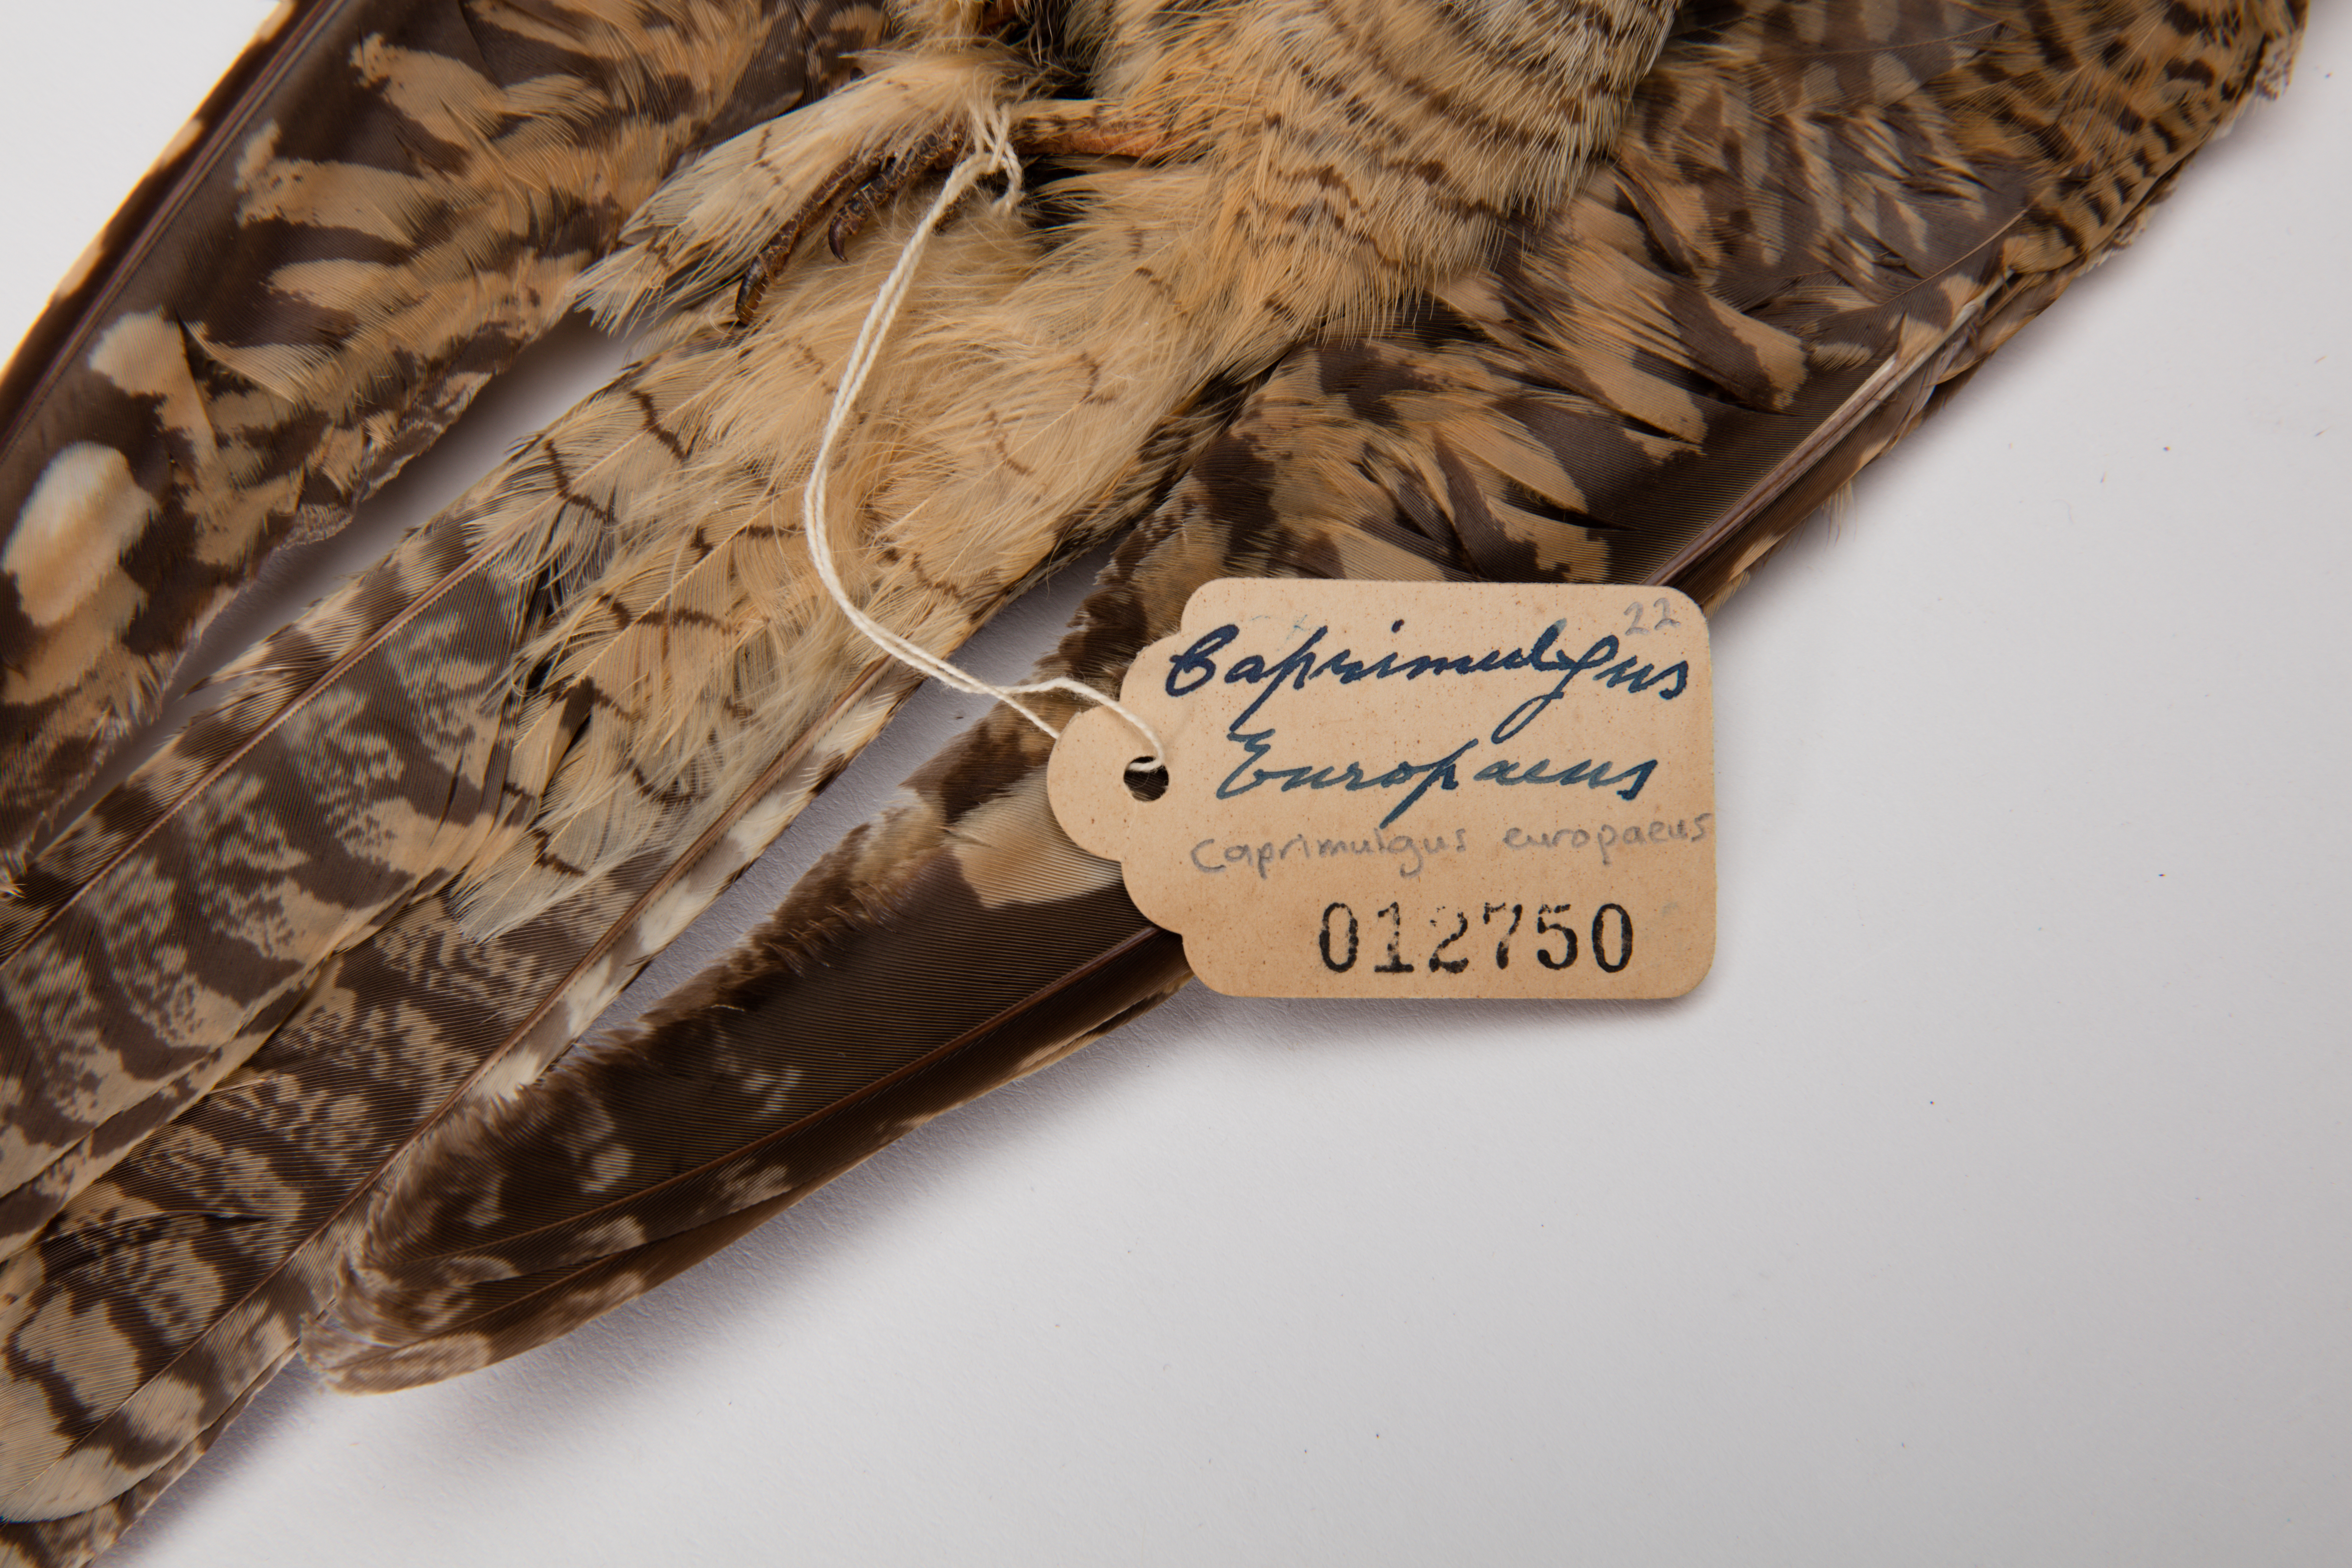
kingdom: Animalia
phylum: Chordata
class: Aves
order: Caprimulgiformes
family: Caprimulgidae
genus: Caprimulgus
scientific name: Caprimulgus europaeus
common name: European nightjar
